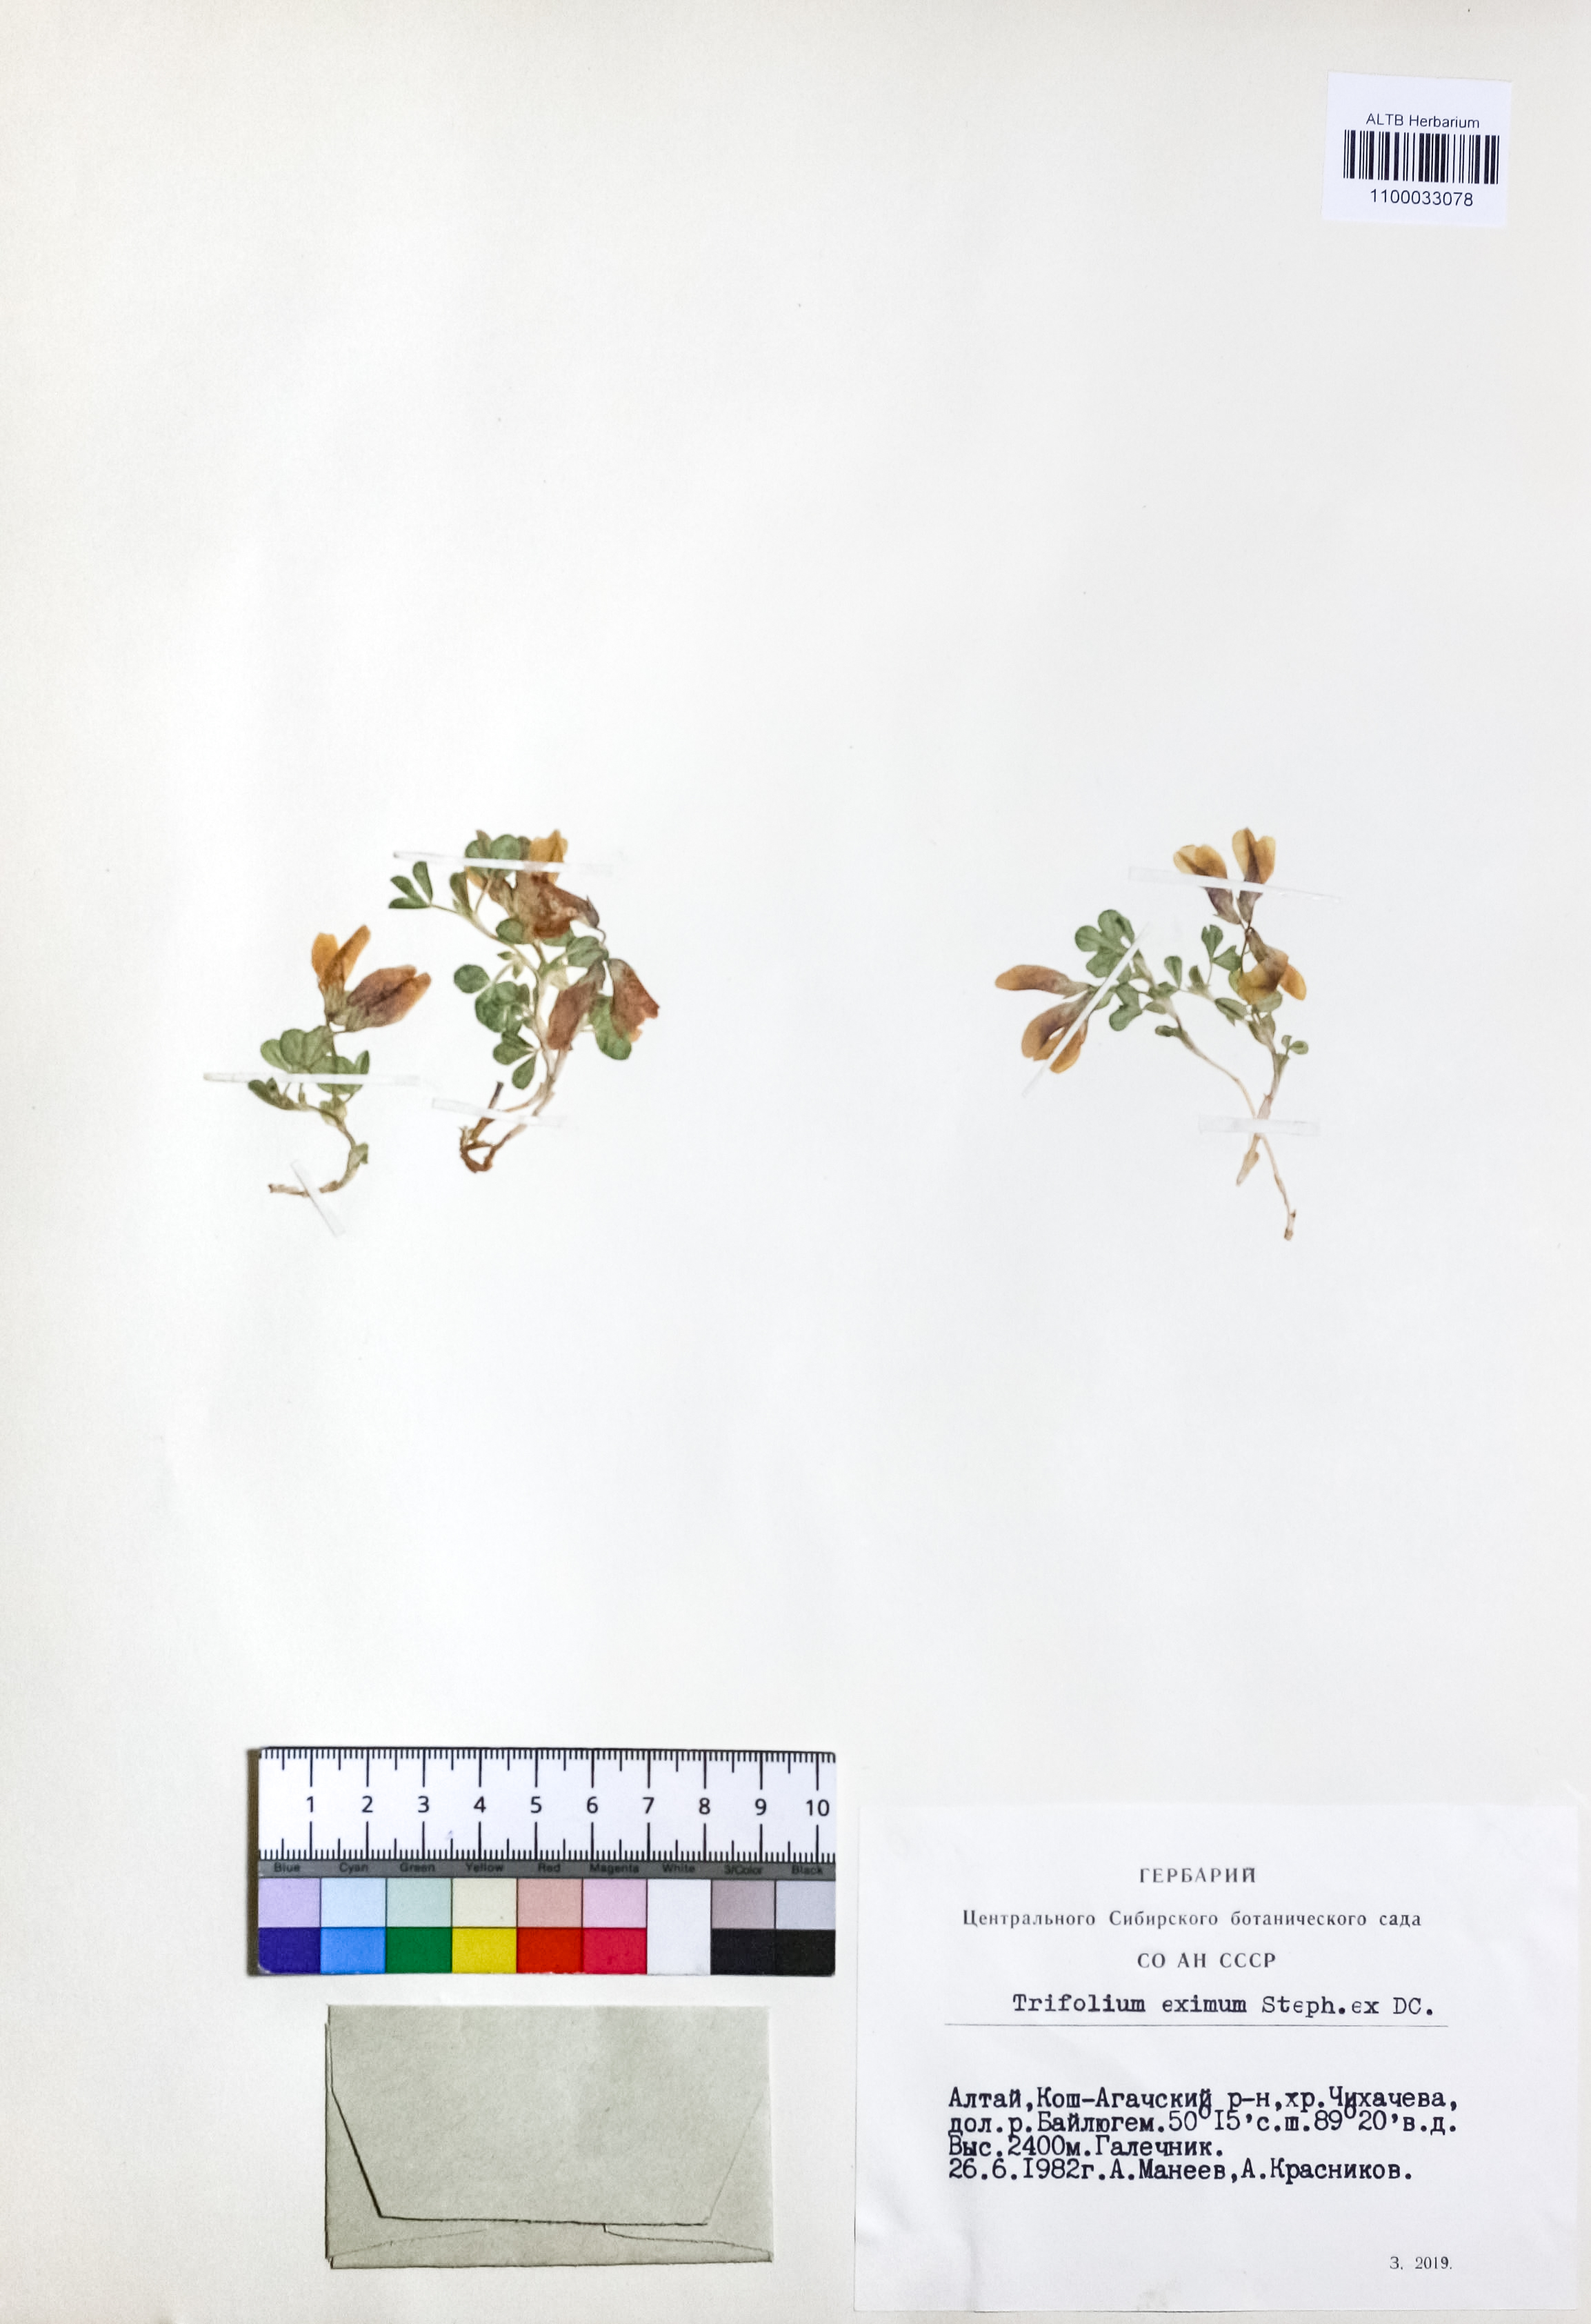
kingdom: Plantae
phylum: Tracheophyta
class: Magnoliopsida
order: Fabales
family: Fabaceae
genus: Trifolium
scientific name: Trifolium eximium
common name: Excellent clover
